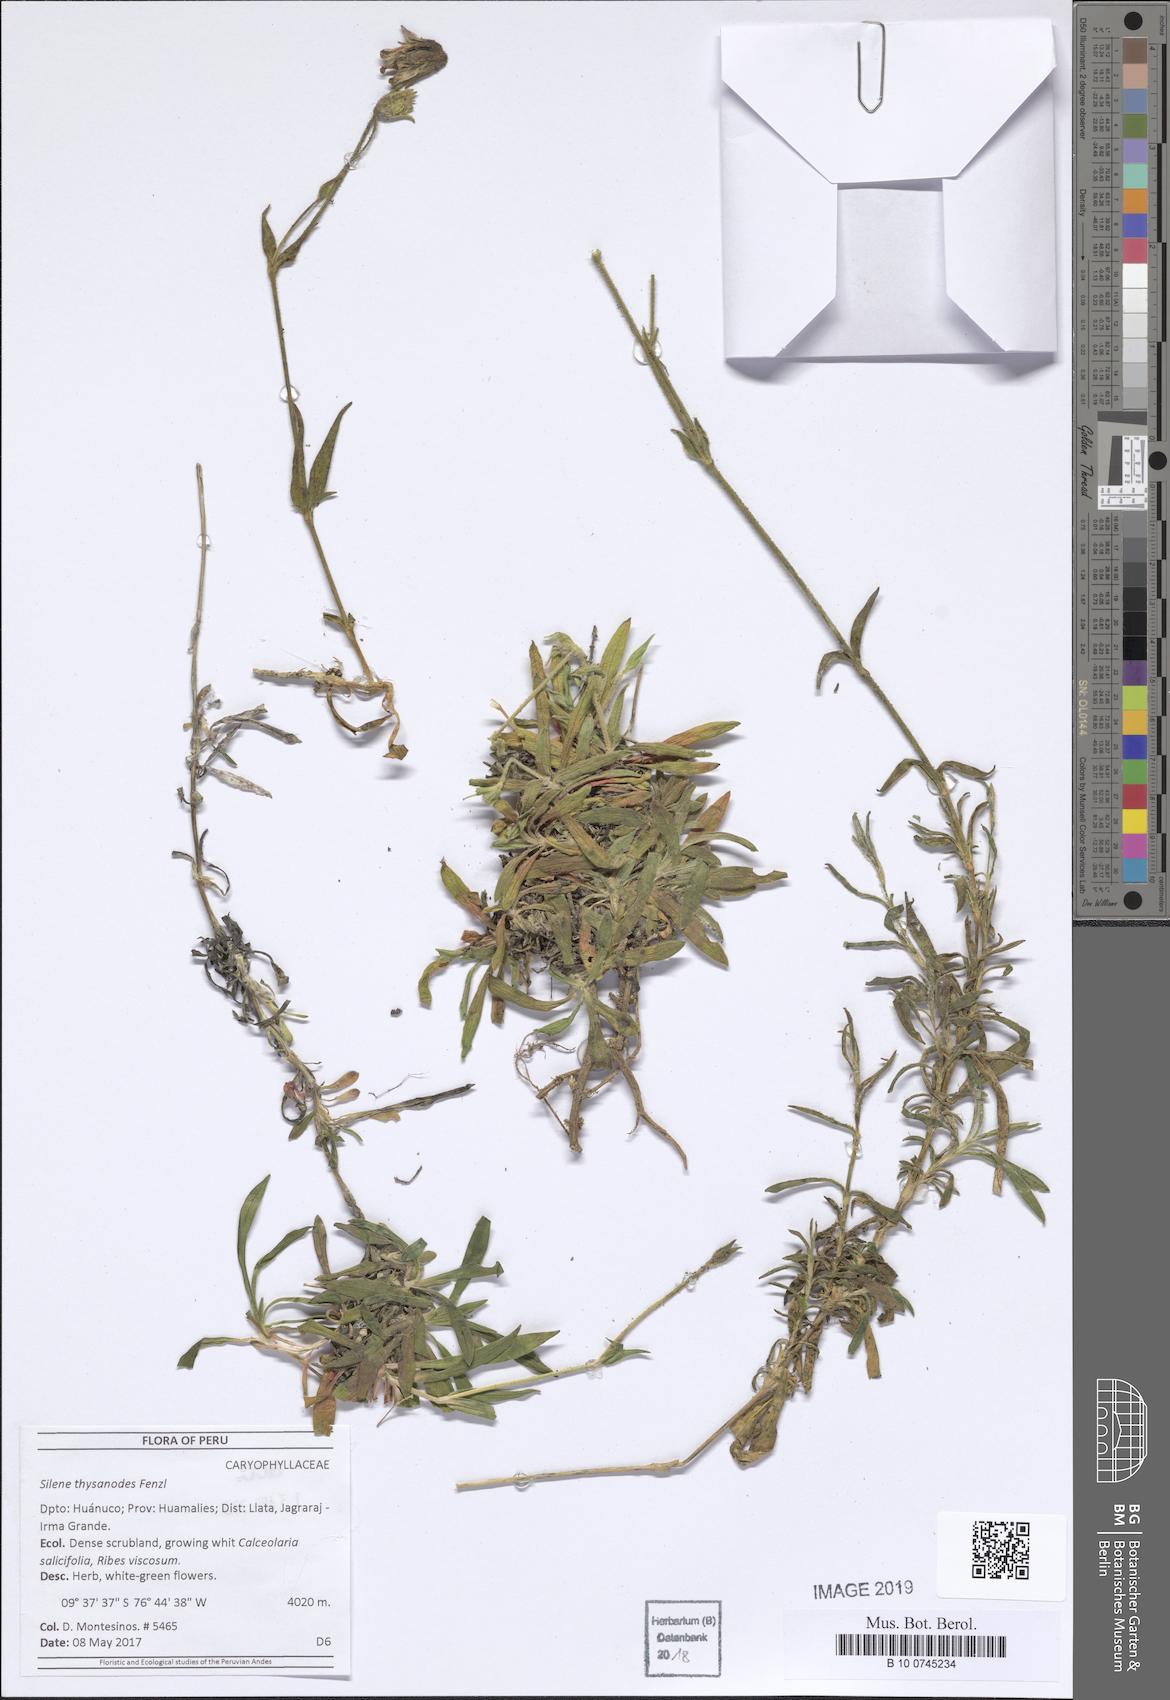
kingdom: Plantae
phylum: Tracheophyta
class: Magnoliopsida
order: Caryophyllales
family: Caryophyllaceae
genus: Silene
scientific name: Silene thysanodes
